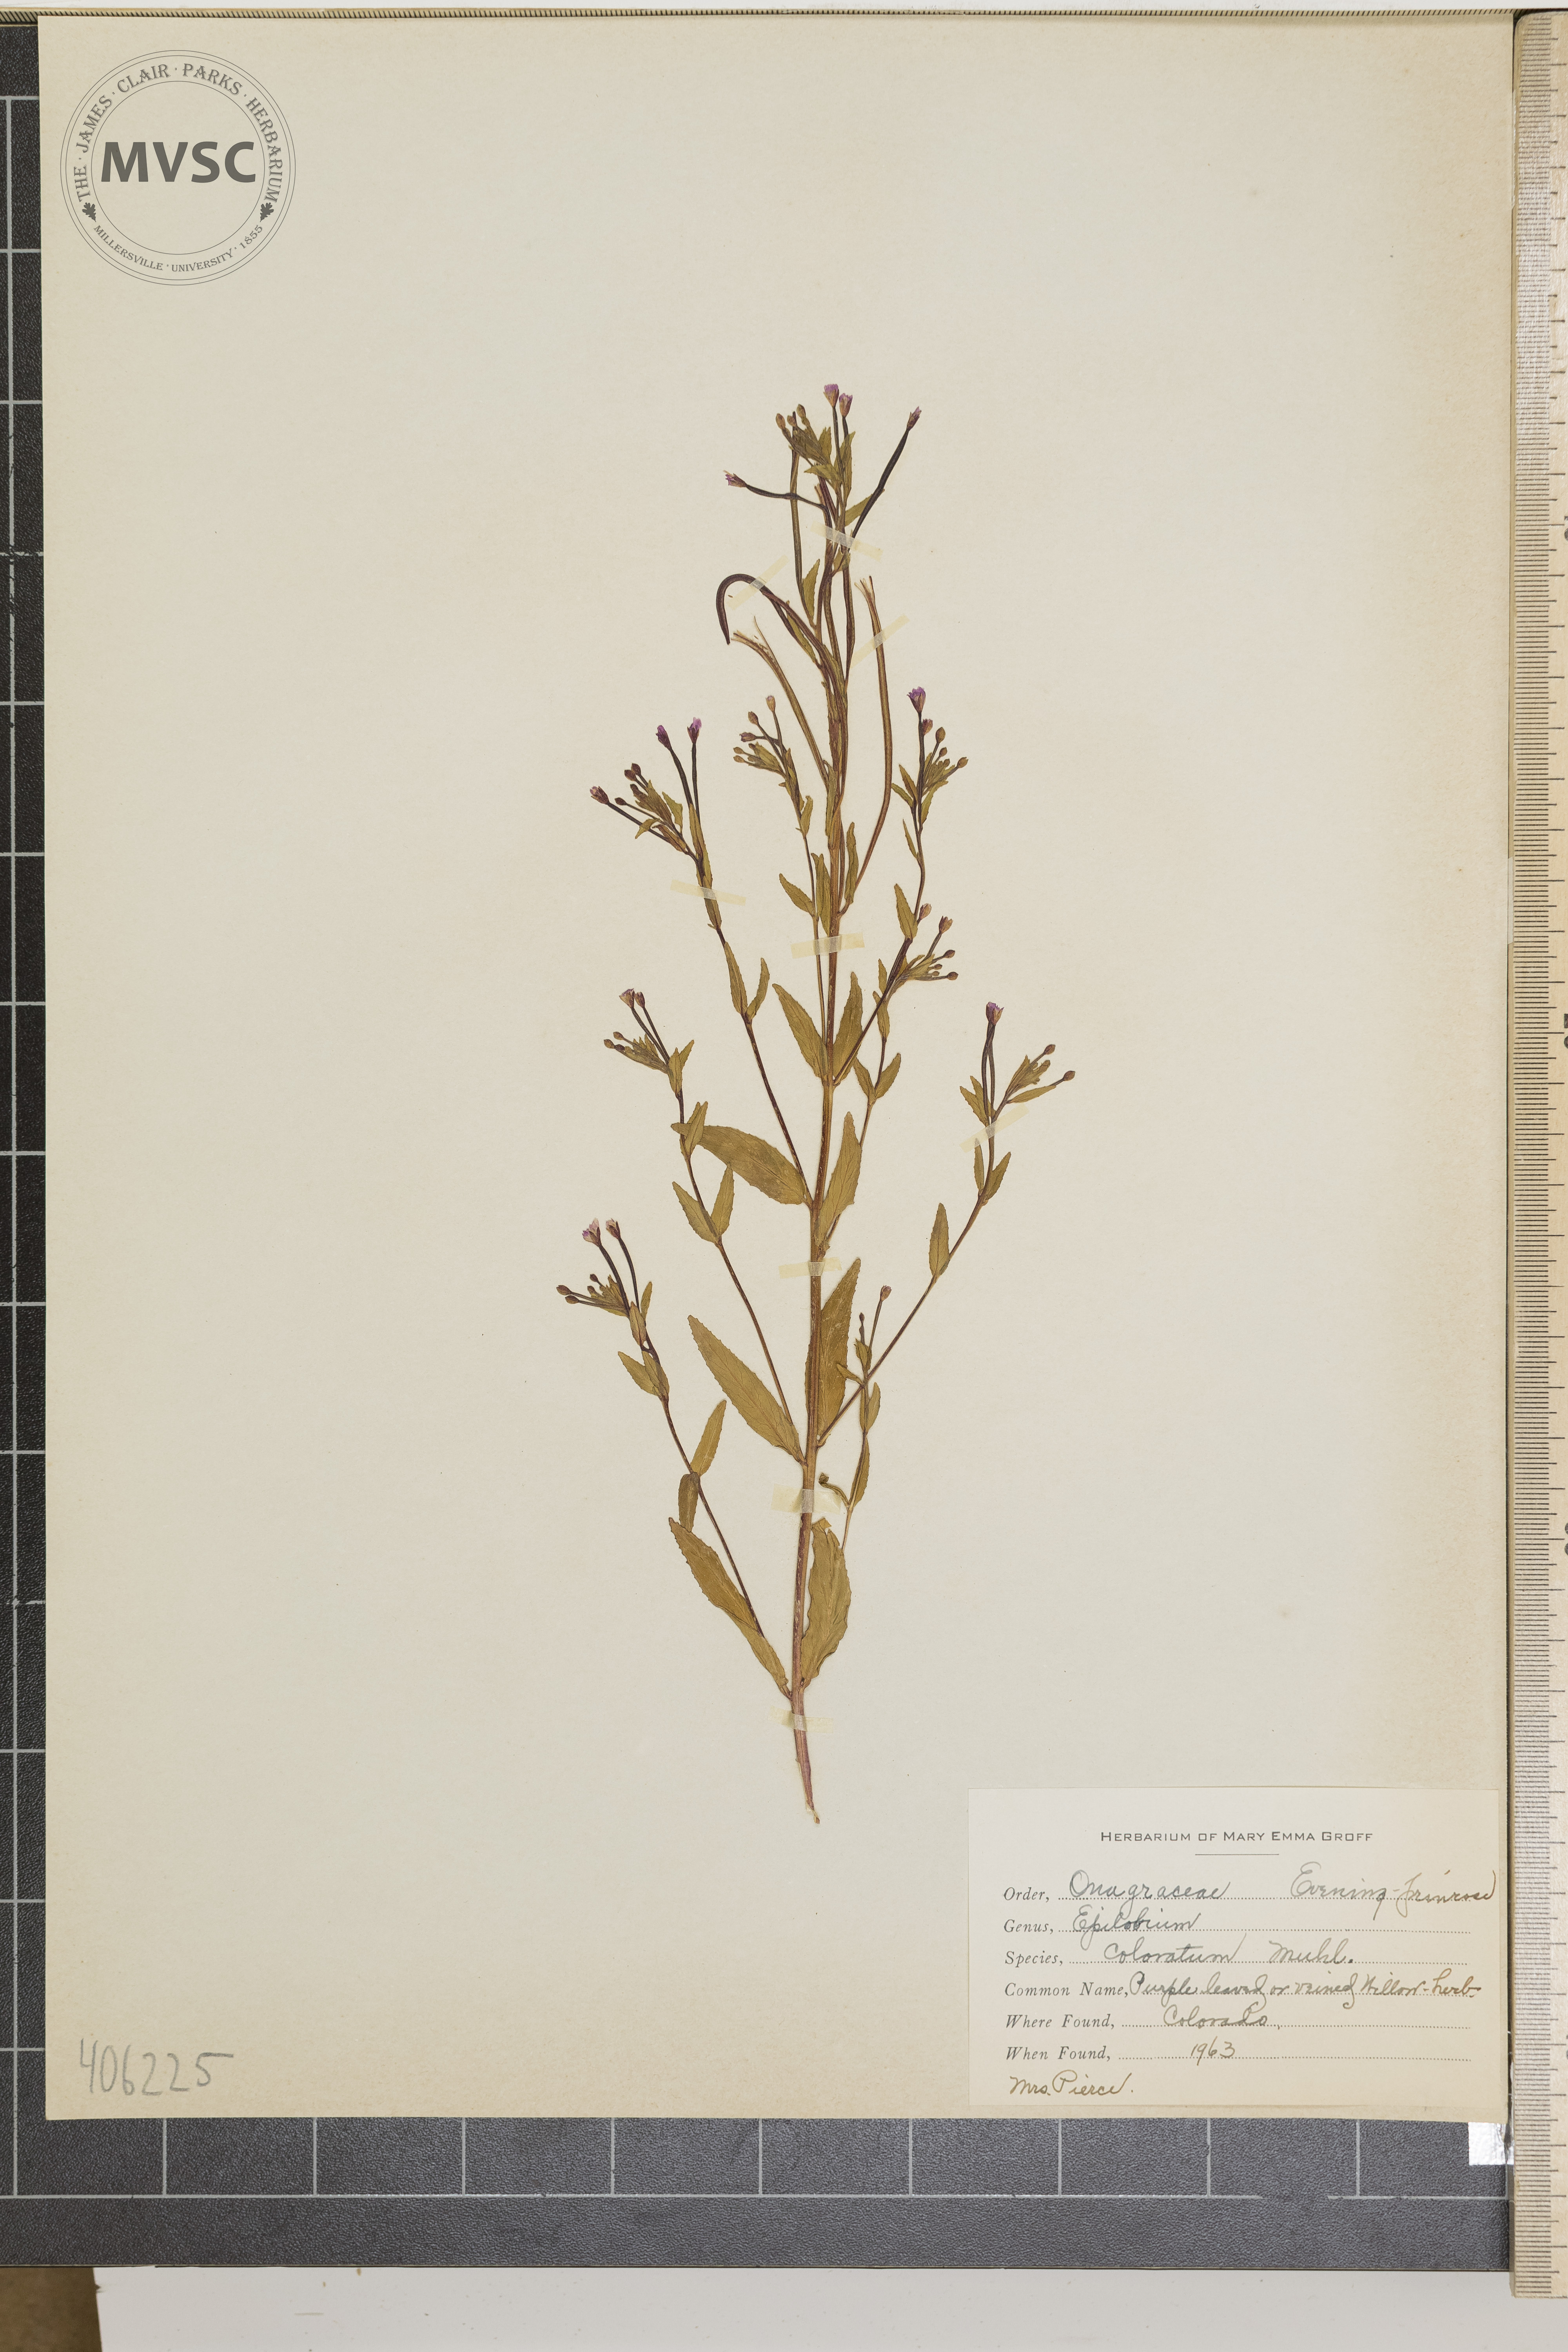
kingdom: Plantae
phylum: Tracheophyta
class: Magnoliopsida
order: Myrtales
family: Onagraceae
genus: Epilobium
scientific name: Epilobium coloratum
